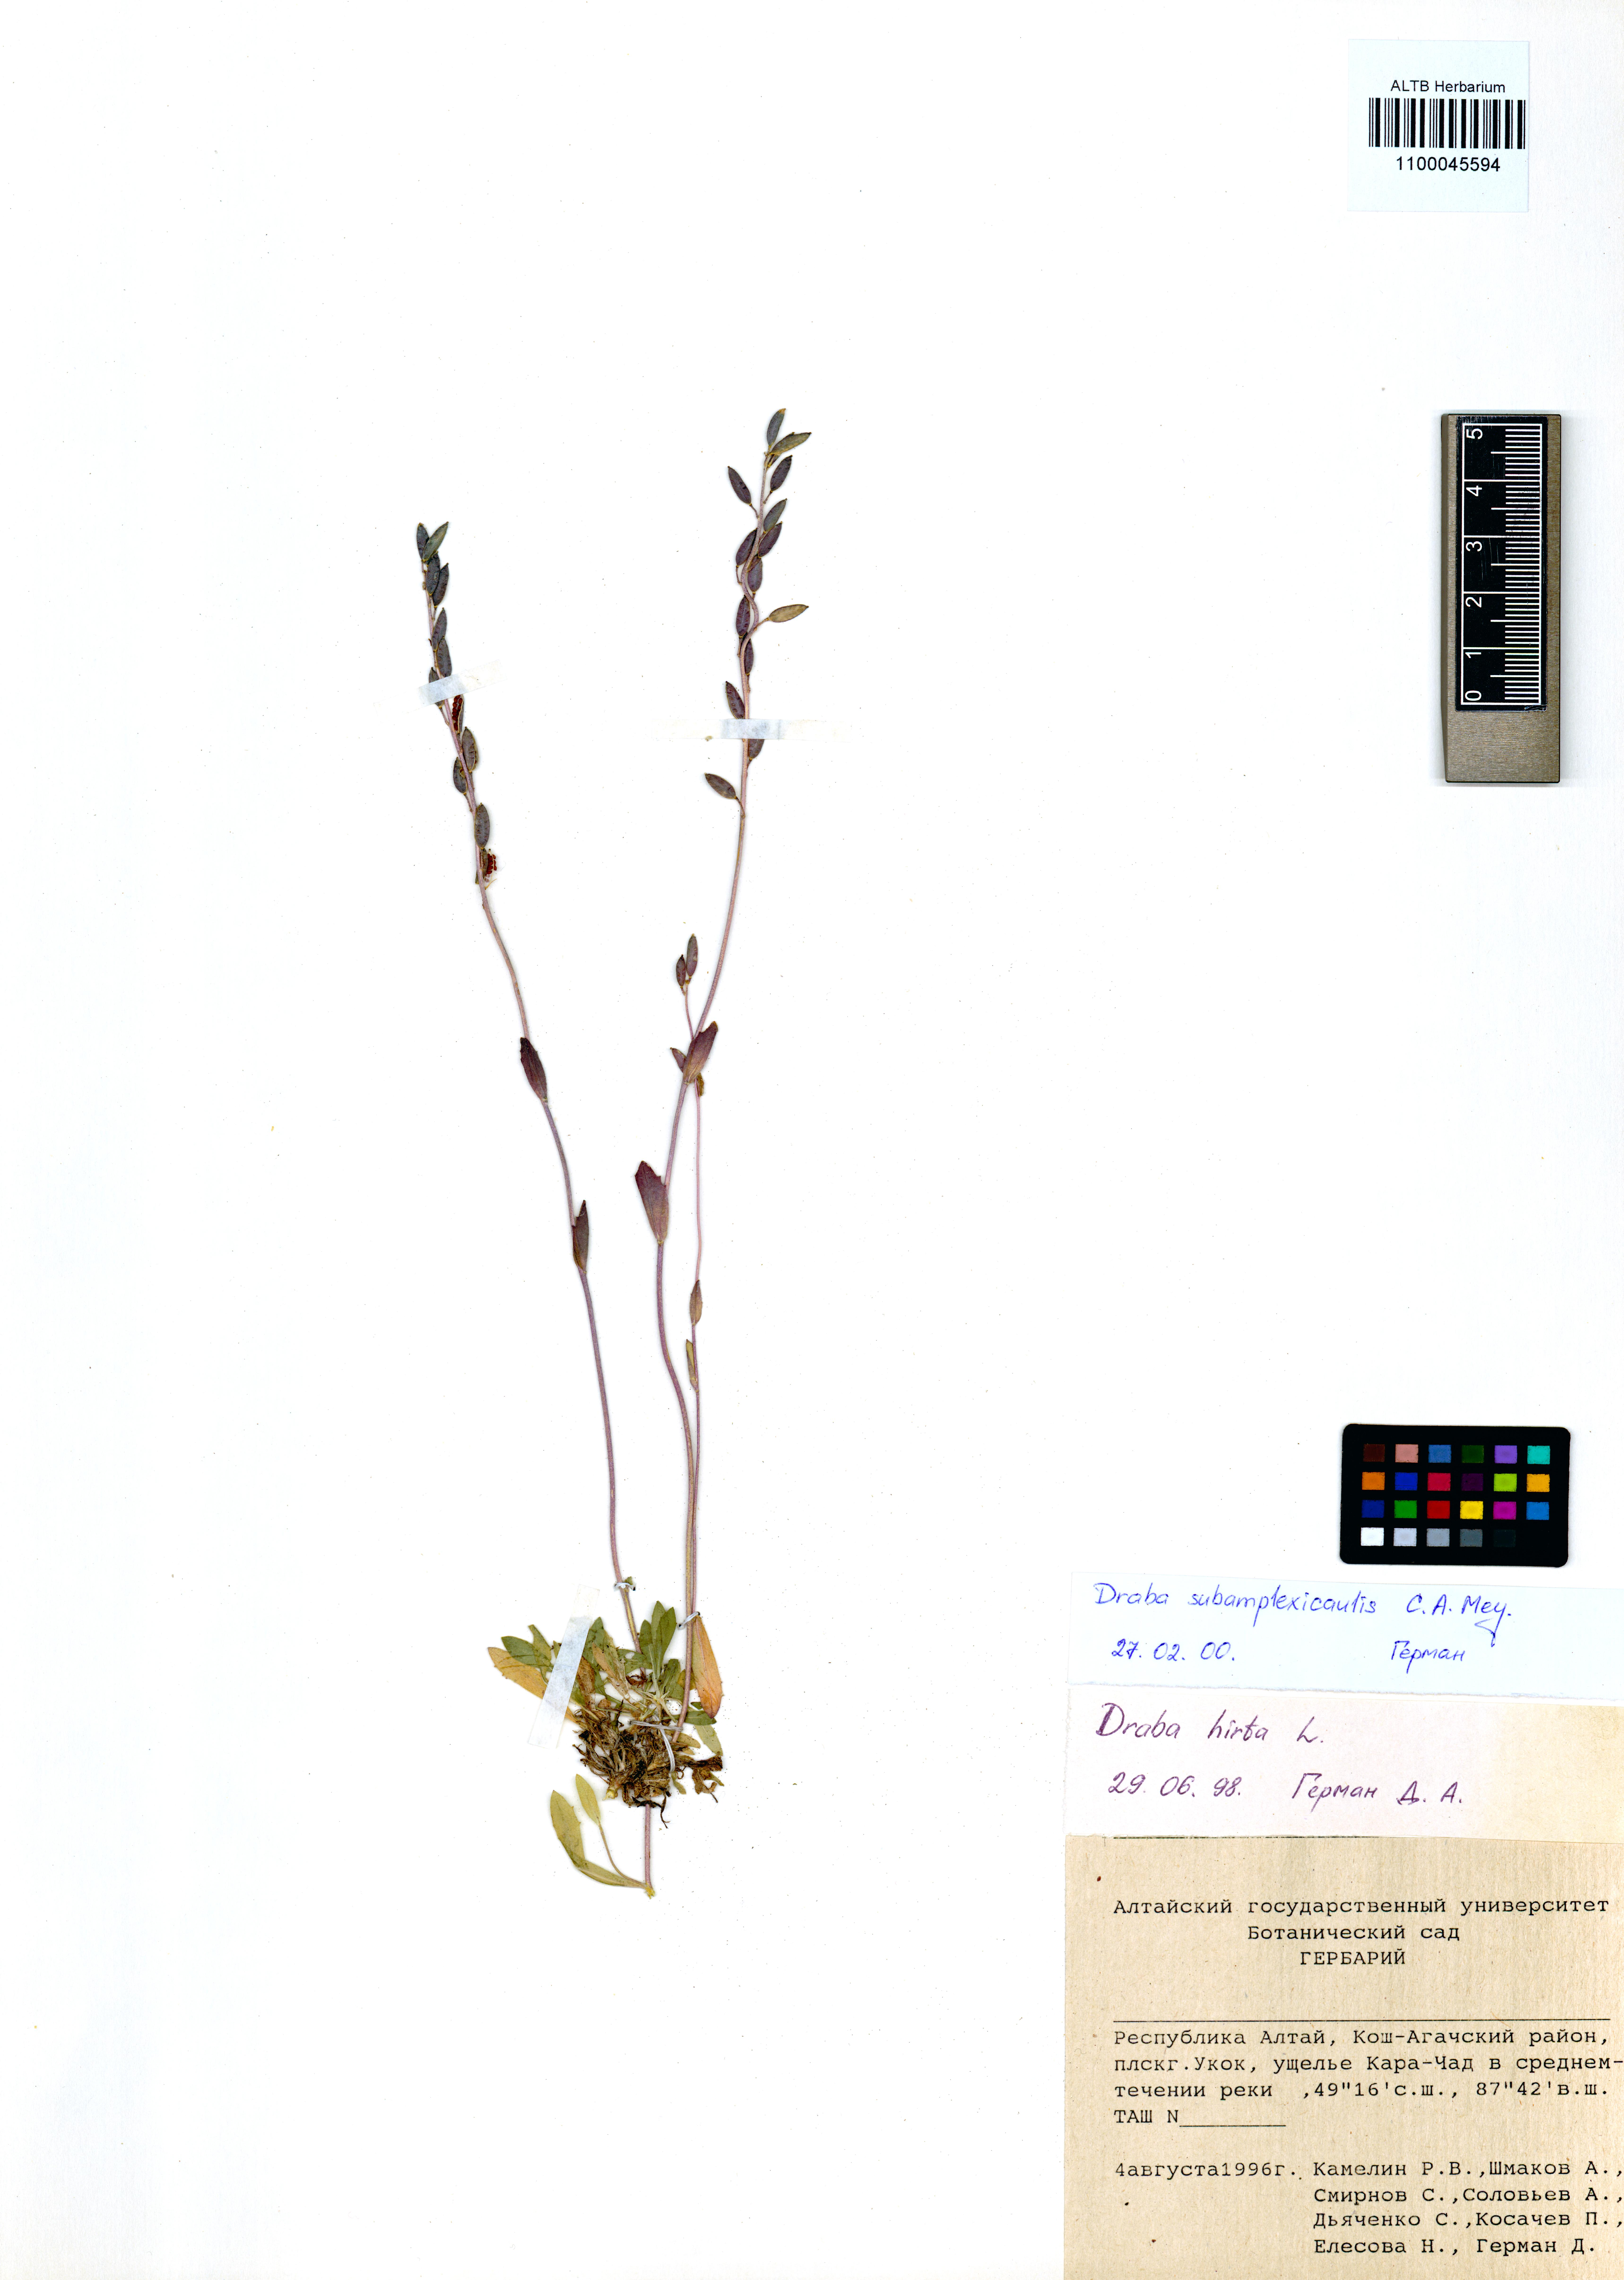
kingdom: Plantae
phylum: Tracheophyta
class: Magnoliopsida
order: Brassicales
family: Brassicaceae
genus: Draba
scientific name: Draba subamplexicaulis
